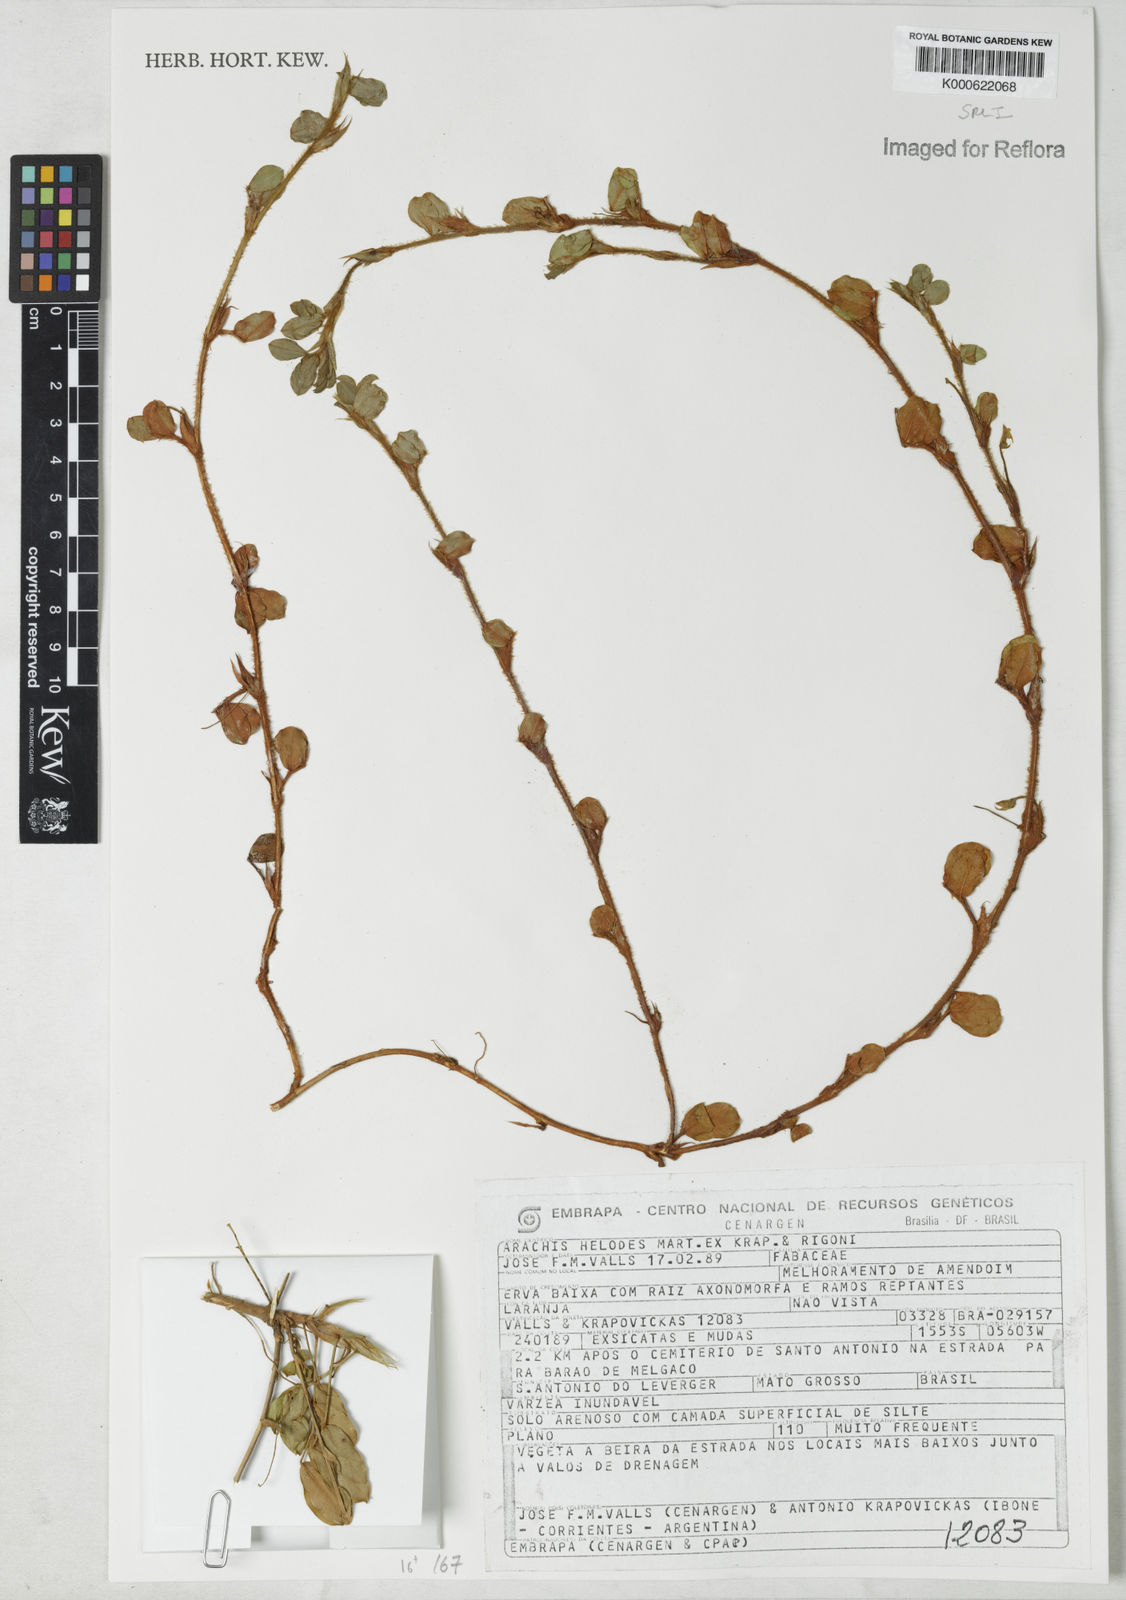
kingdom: Plantae
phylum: Tracheophyta
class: Magnoliopsida
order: Fabales
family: Fabaceae
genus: Arachis
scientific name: Arachis helodes
